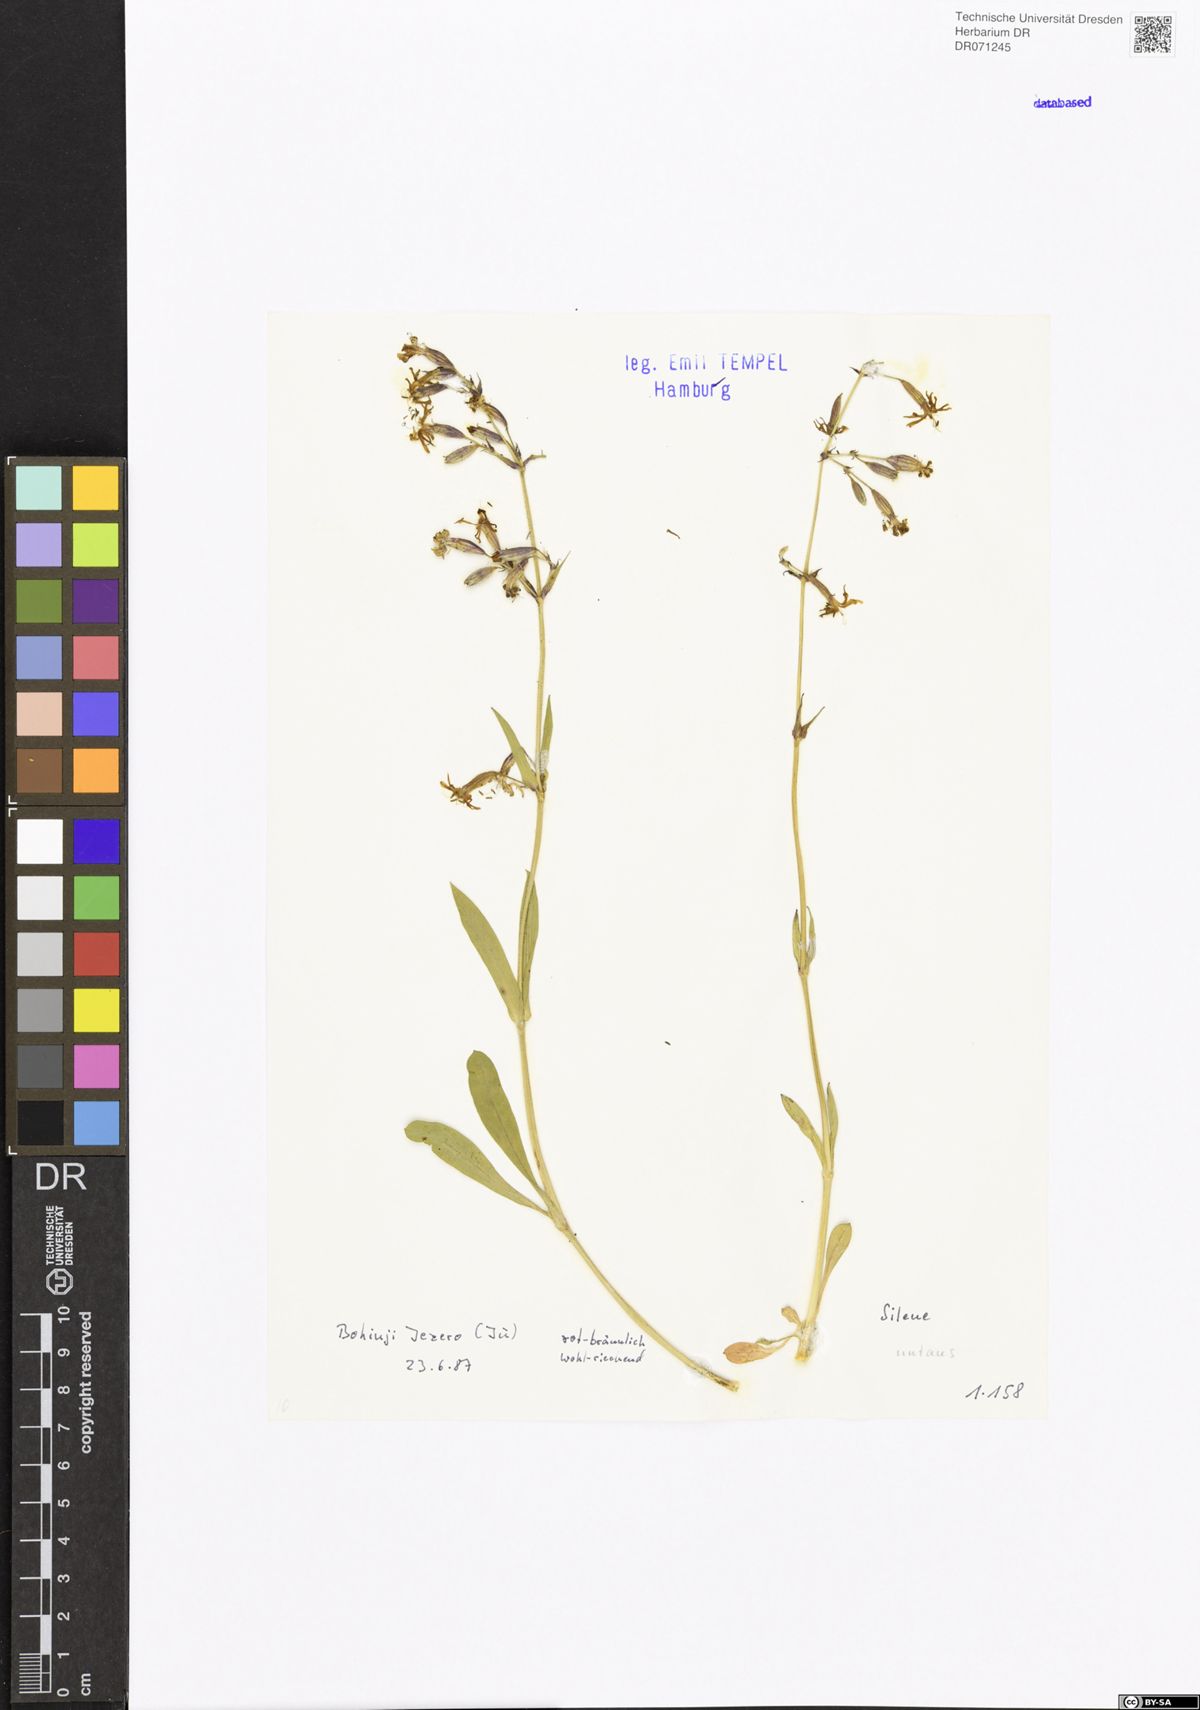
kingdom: Plantae
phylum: Tracheophyta
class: Magnoliopsida
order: Caryophyllales
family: Caryophyllaceae
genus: Silene
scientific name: Silene nutans
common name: Nottingham catchfly
